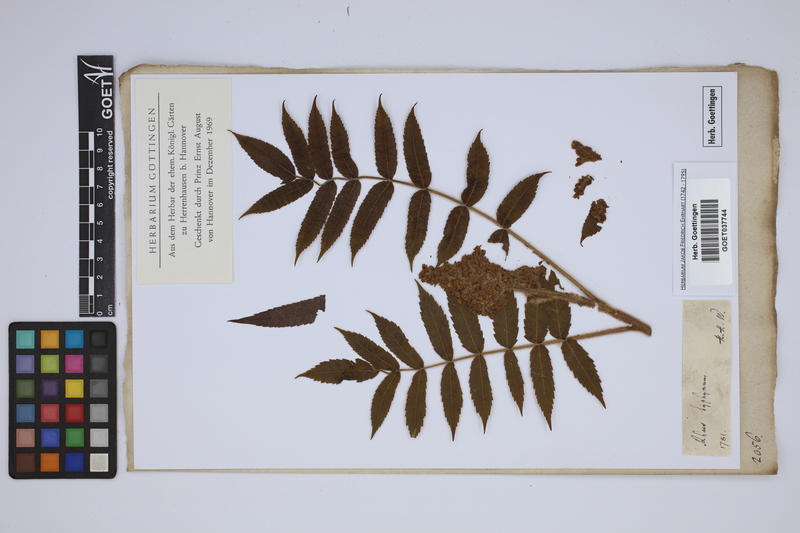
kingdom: Plantae
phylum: Tracheophyta
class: Magnoliopsida
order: Sapindales
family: Anacardiaceae
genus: Rhus
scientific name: Rhus typhina
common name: Staghorn sumac
